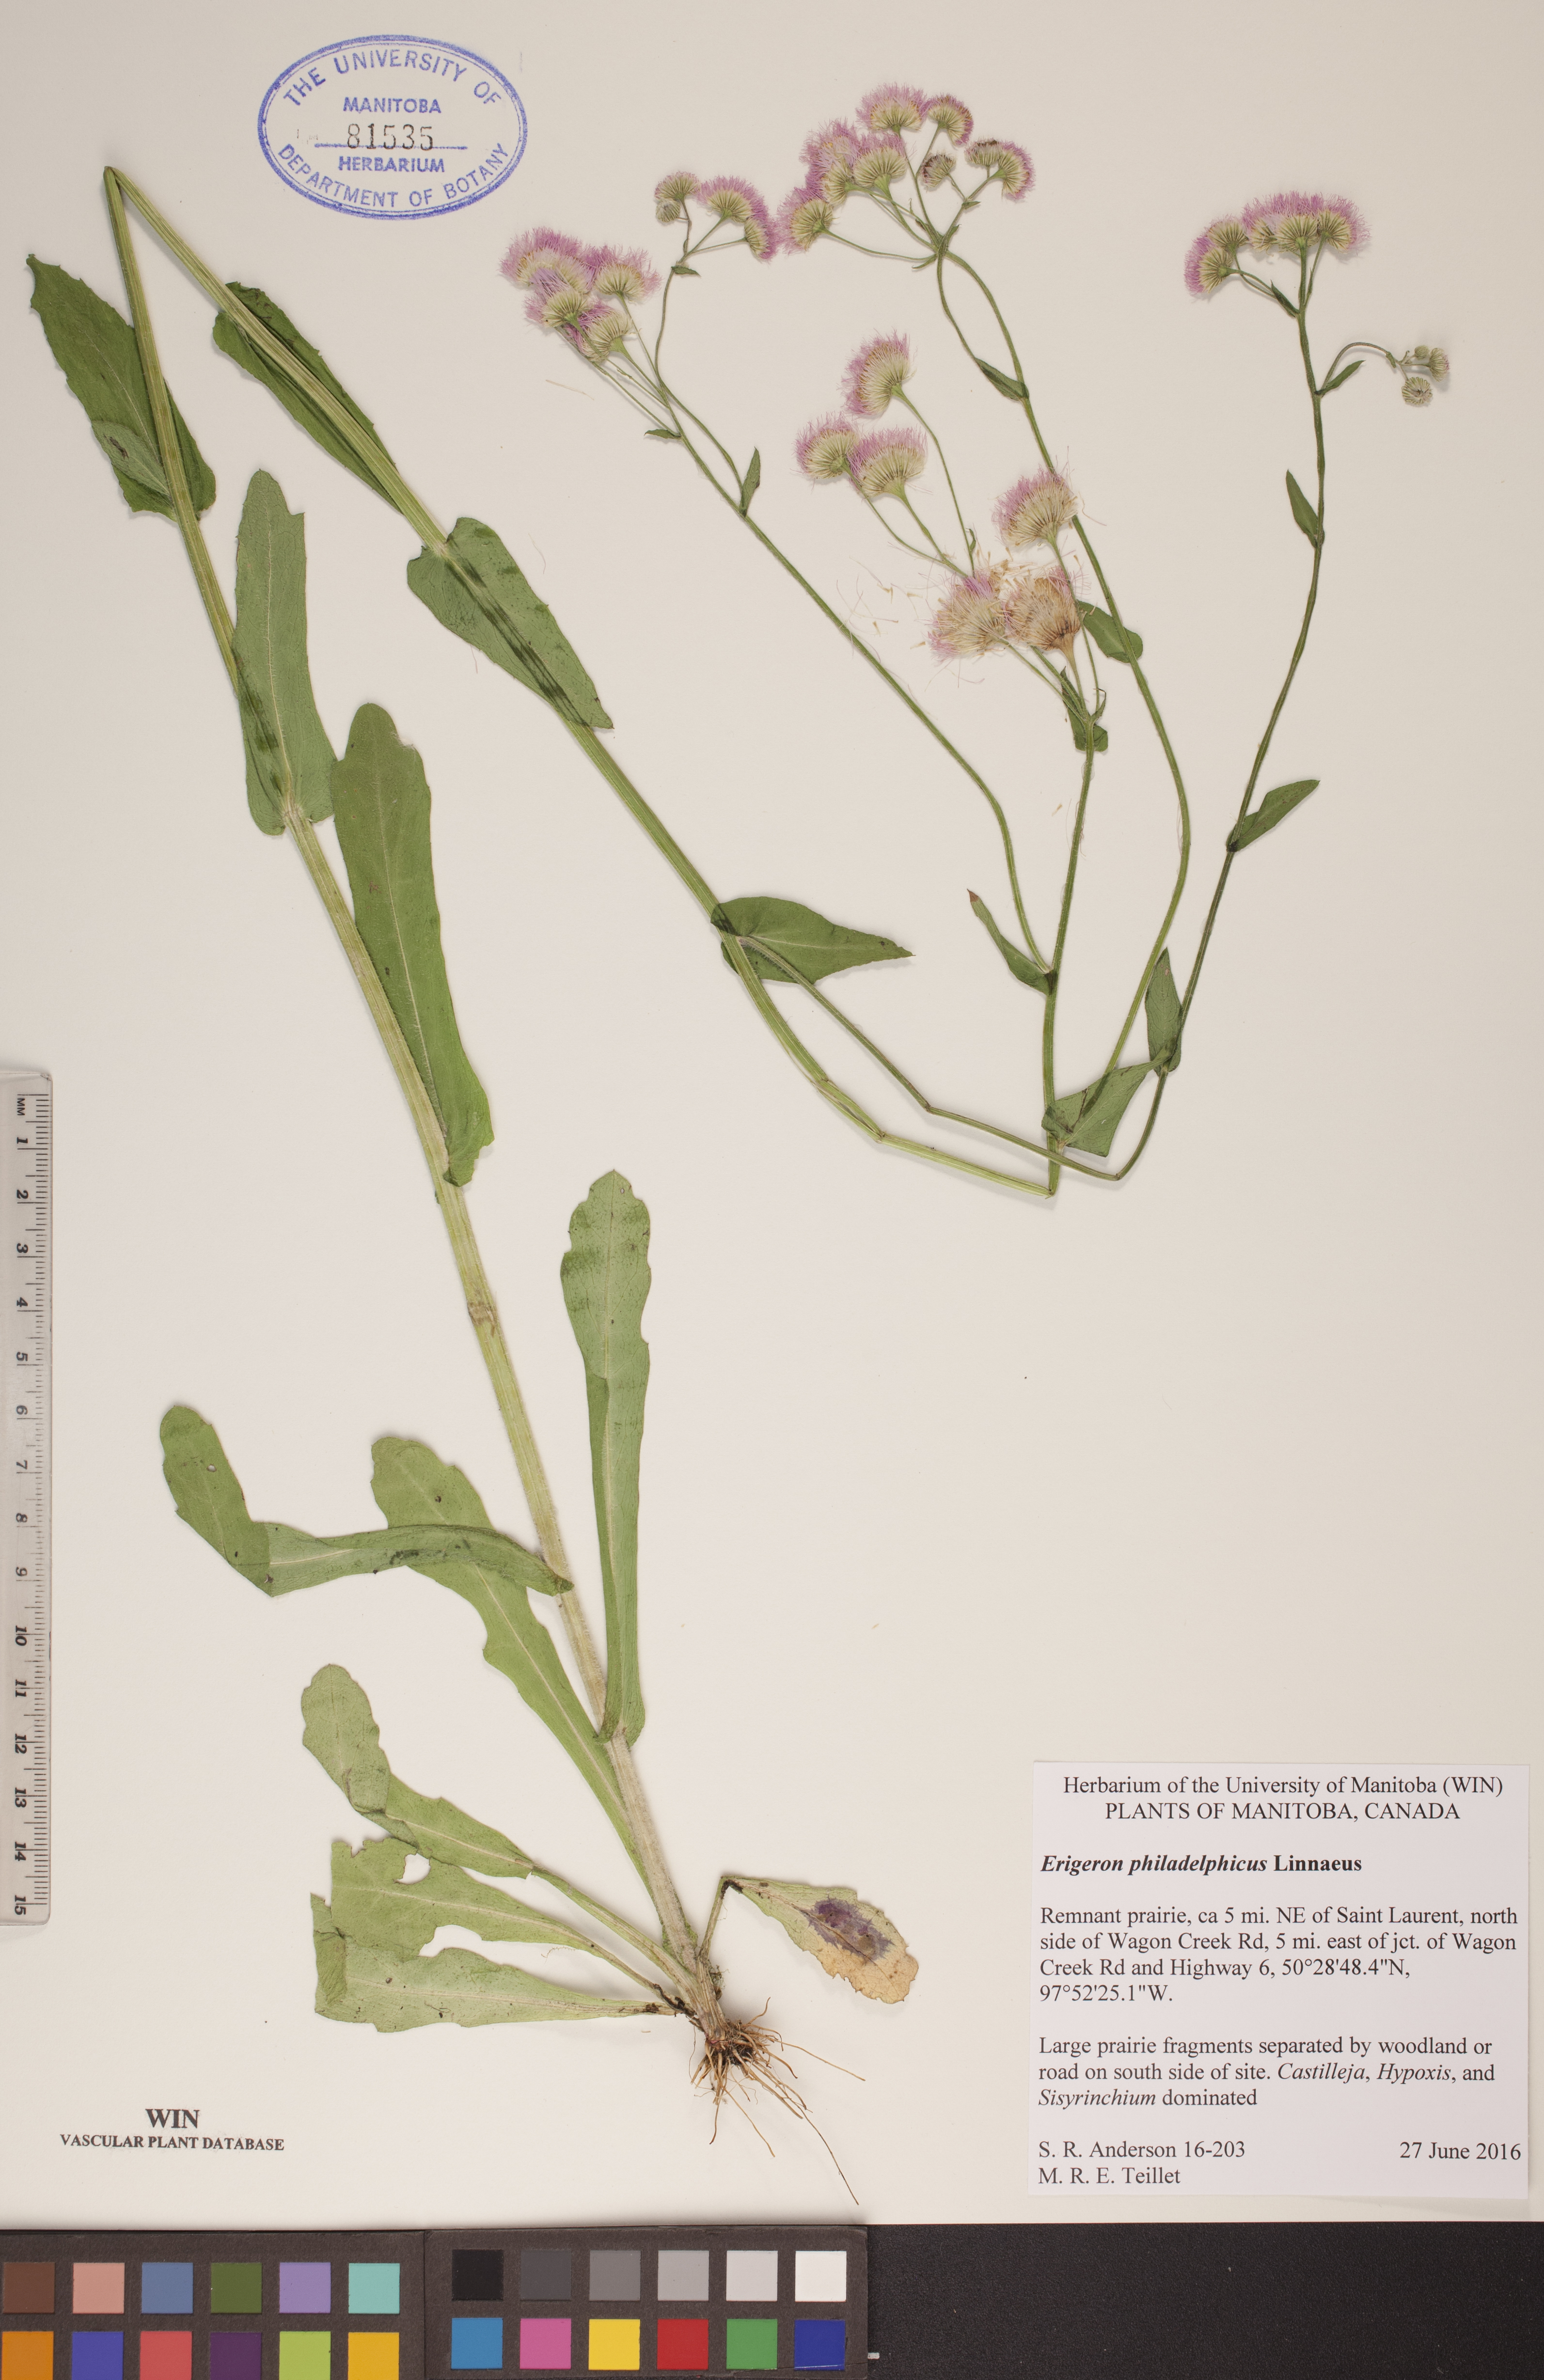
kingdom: Plantae
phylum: Tracheophyta
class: Magnoliopsida
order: Asterales
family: Asteraceae
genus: Erigeron
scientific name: Erigeron philadelphicus
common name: Robin's-plantain
